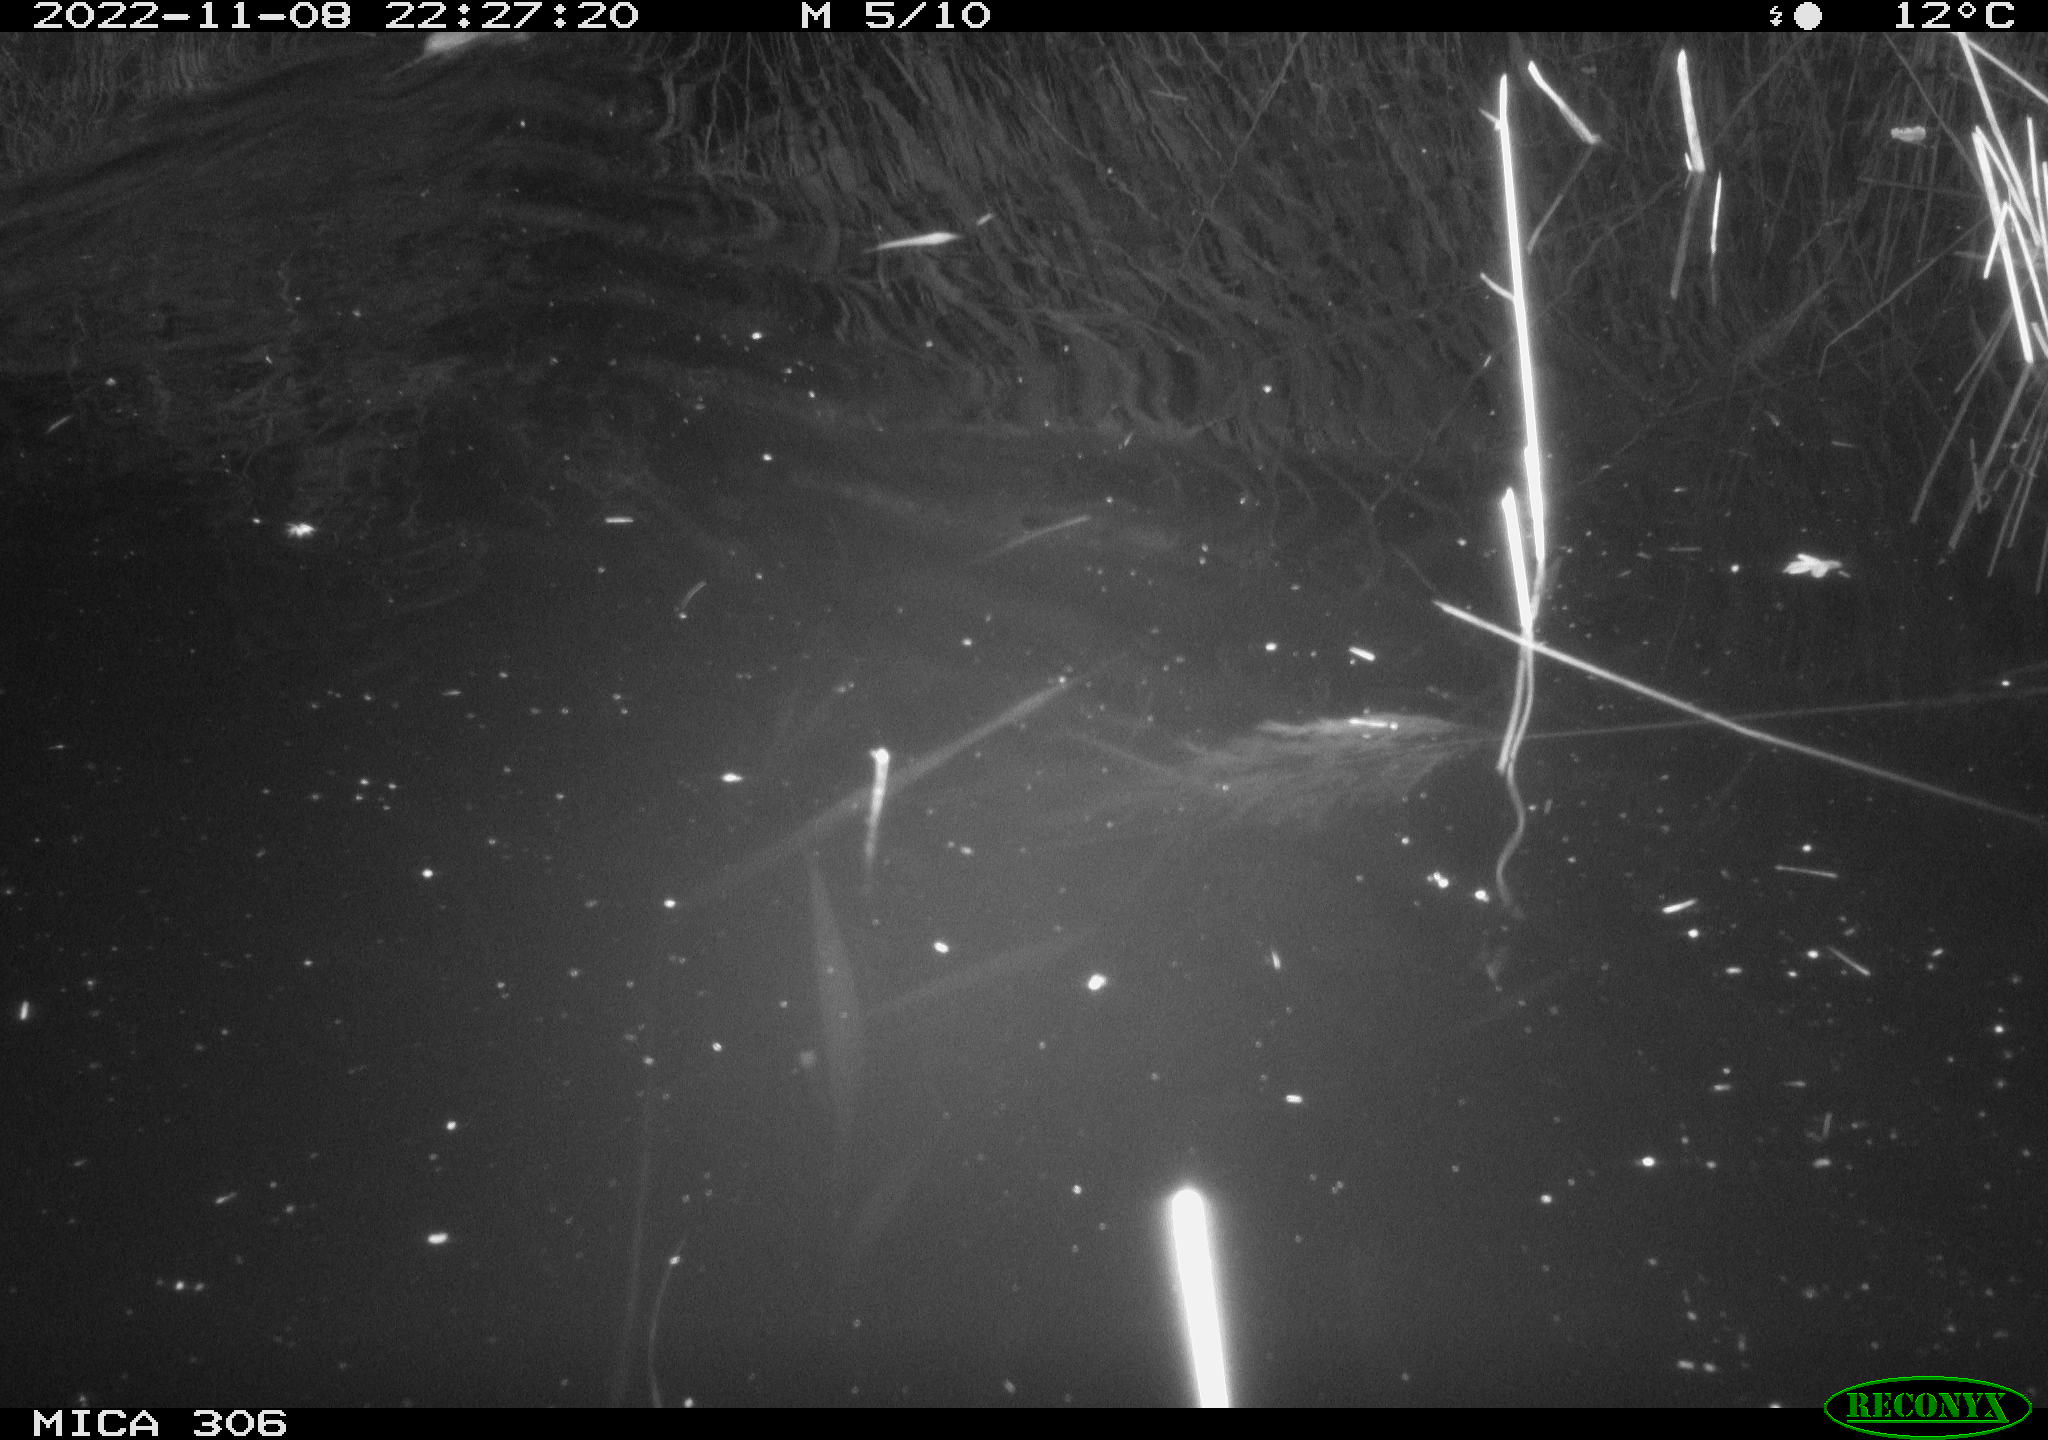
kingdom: Animalia
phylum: Chordata
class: Mammalia
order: Rodentia
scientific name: Rodentia
